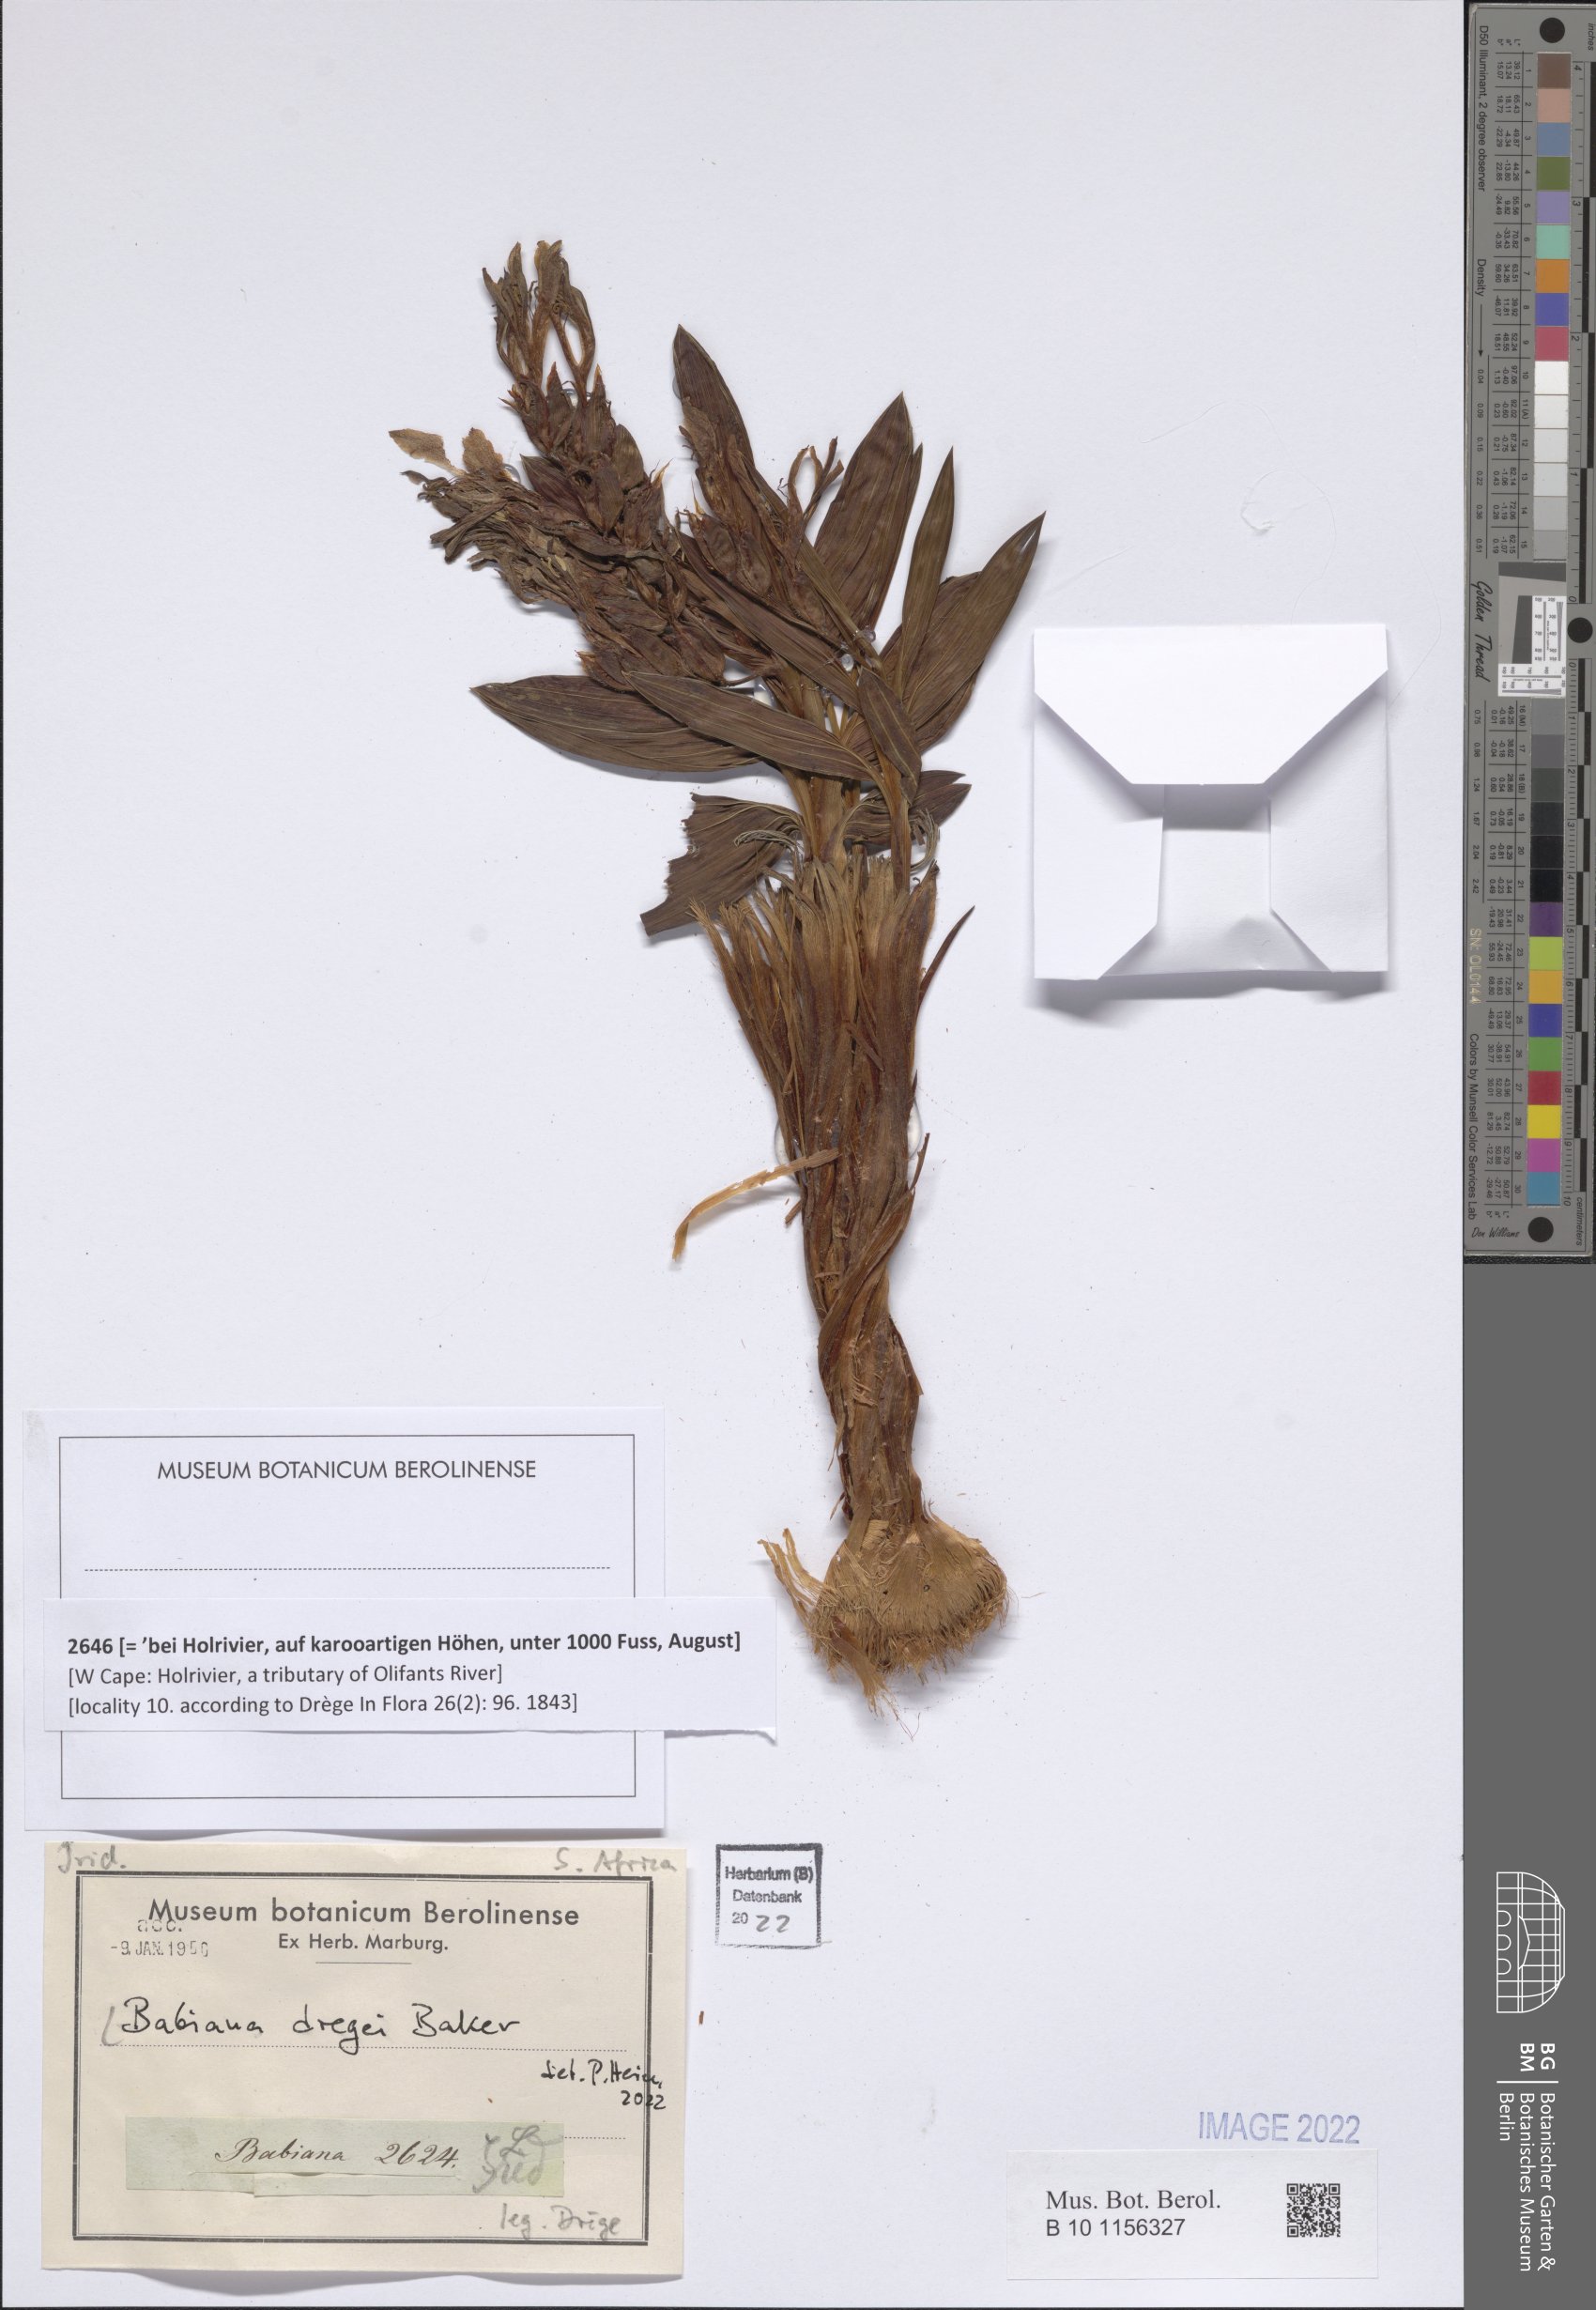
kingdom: Plantae
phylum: Tracheophyta
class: Liliopsida
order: Asparagales
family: Iridaceae
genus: Babiana
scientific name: Babiana dregei
